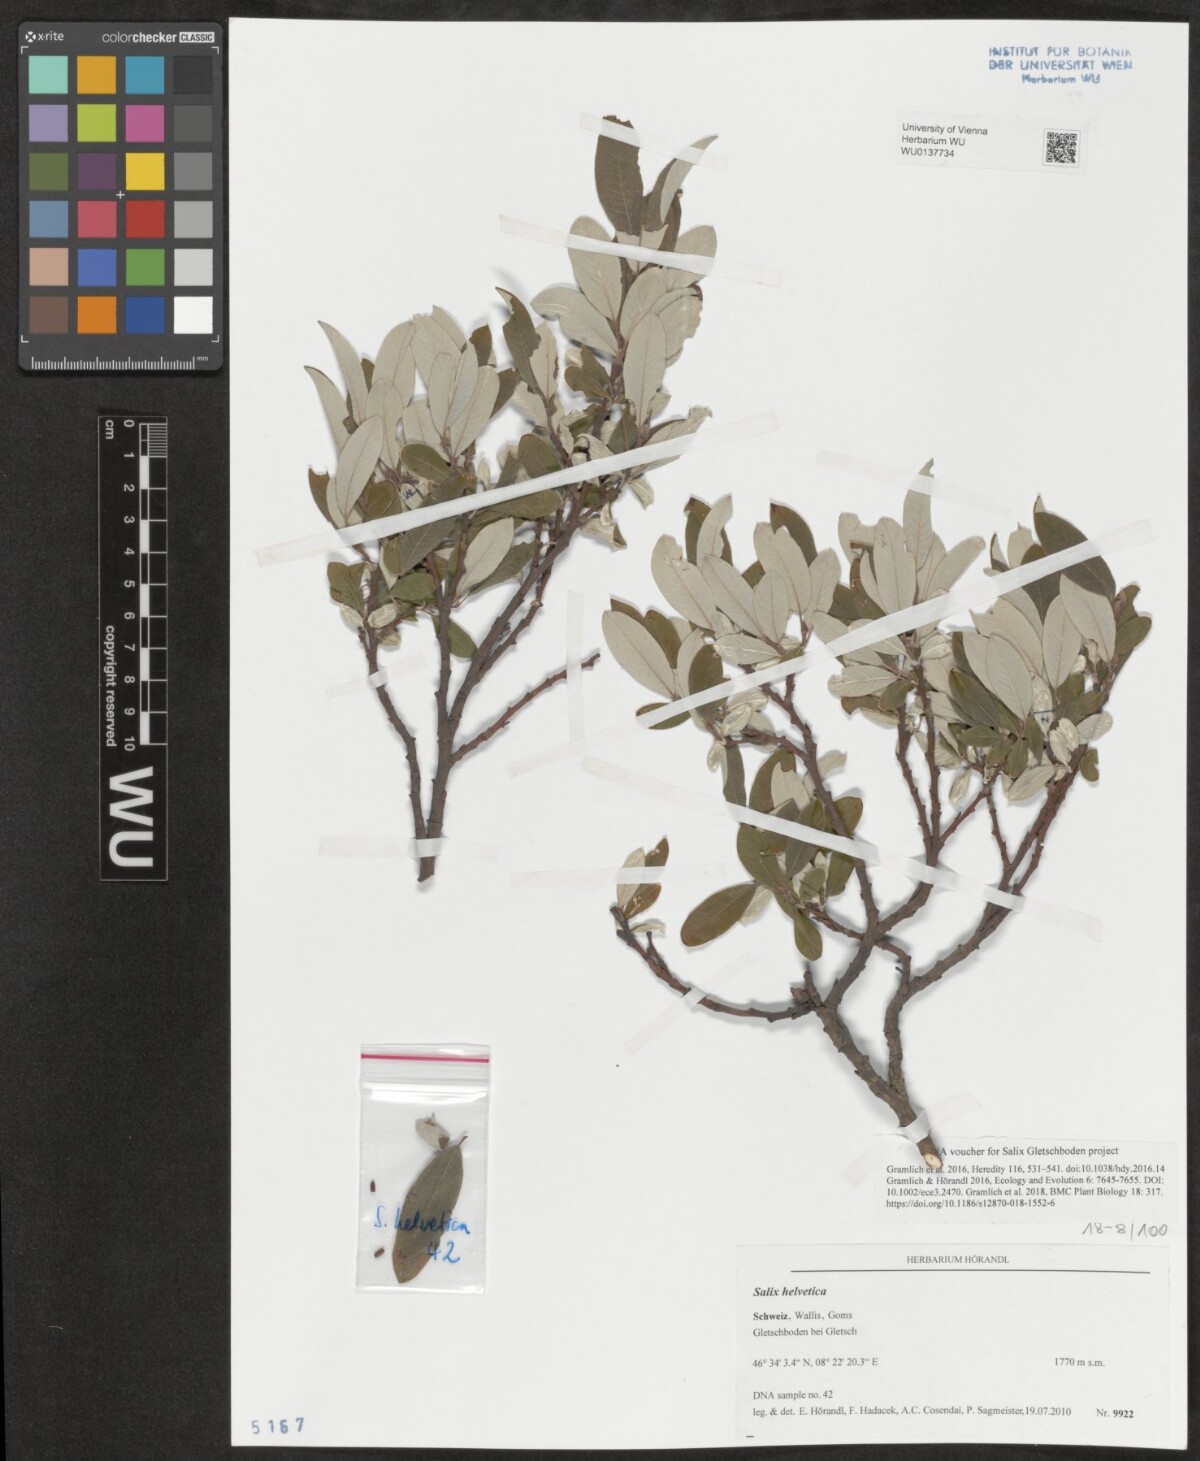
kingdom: Plantae
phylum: Tracheophyta
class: Magnoliopsida
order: Malpighiales
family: Salicaceae
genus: Salix
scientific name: Salix helvetica
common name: Swiss willow
